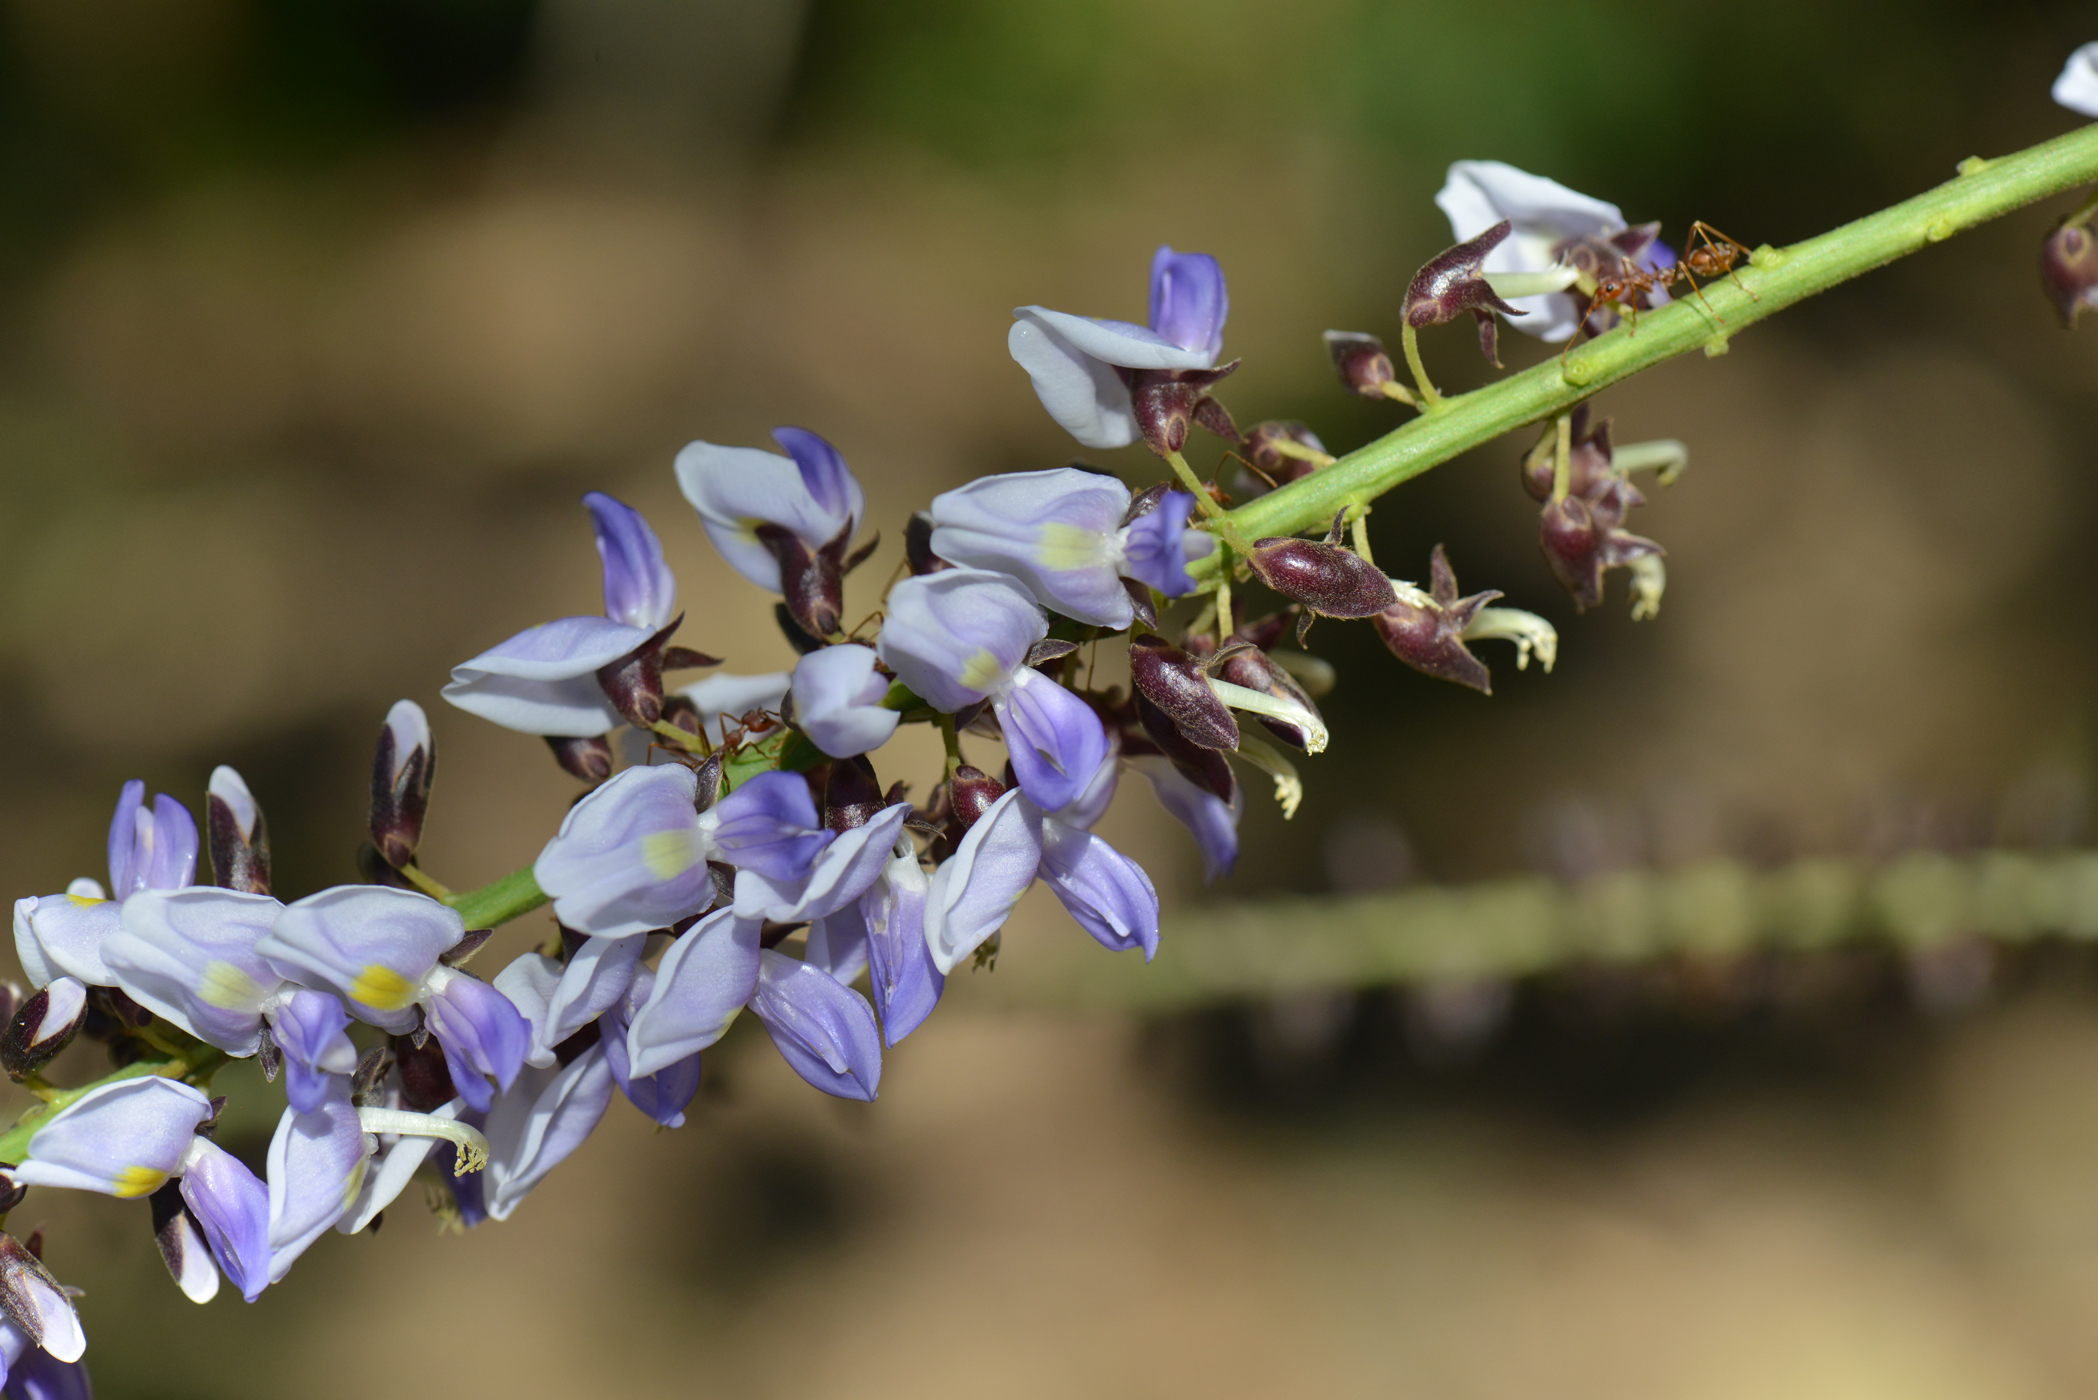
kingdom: Plantae
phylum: Tracheophyta
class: Magnoliopsida
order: Fabales
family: Fabaceae
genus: Pueraria
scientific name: Pueraria imbricata
